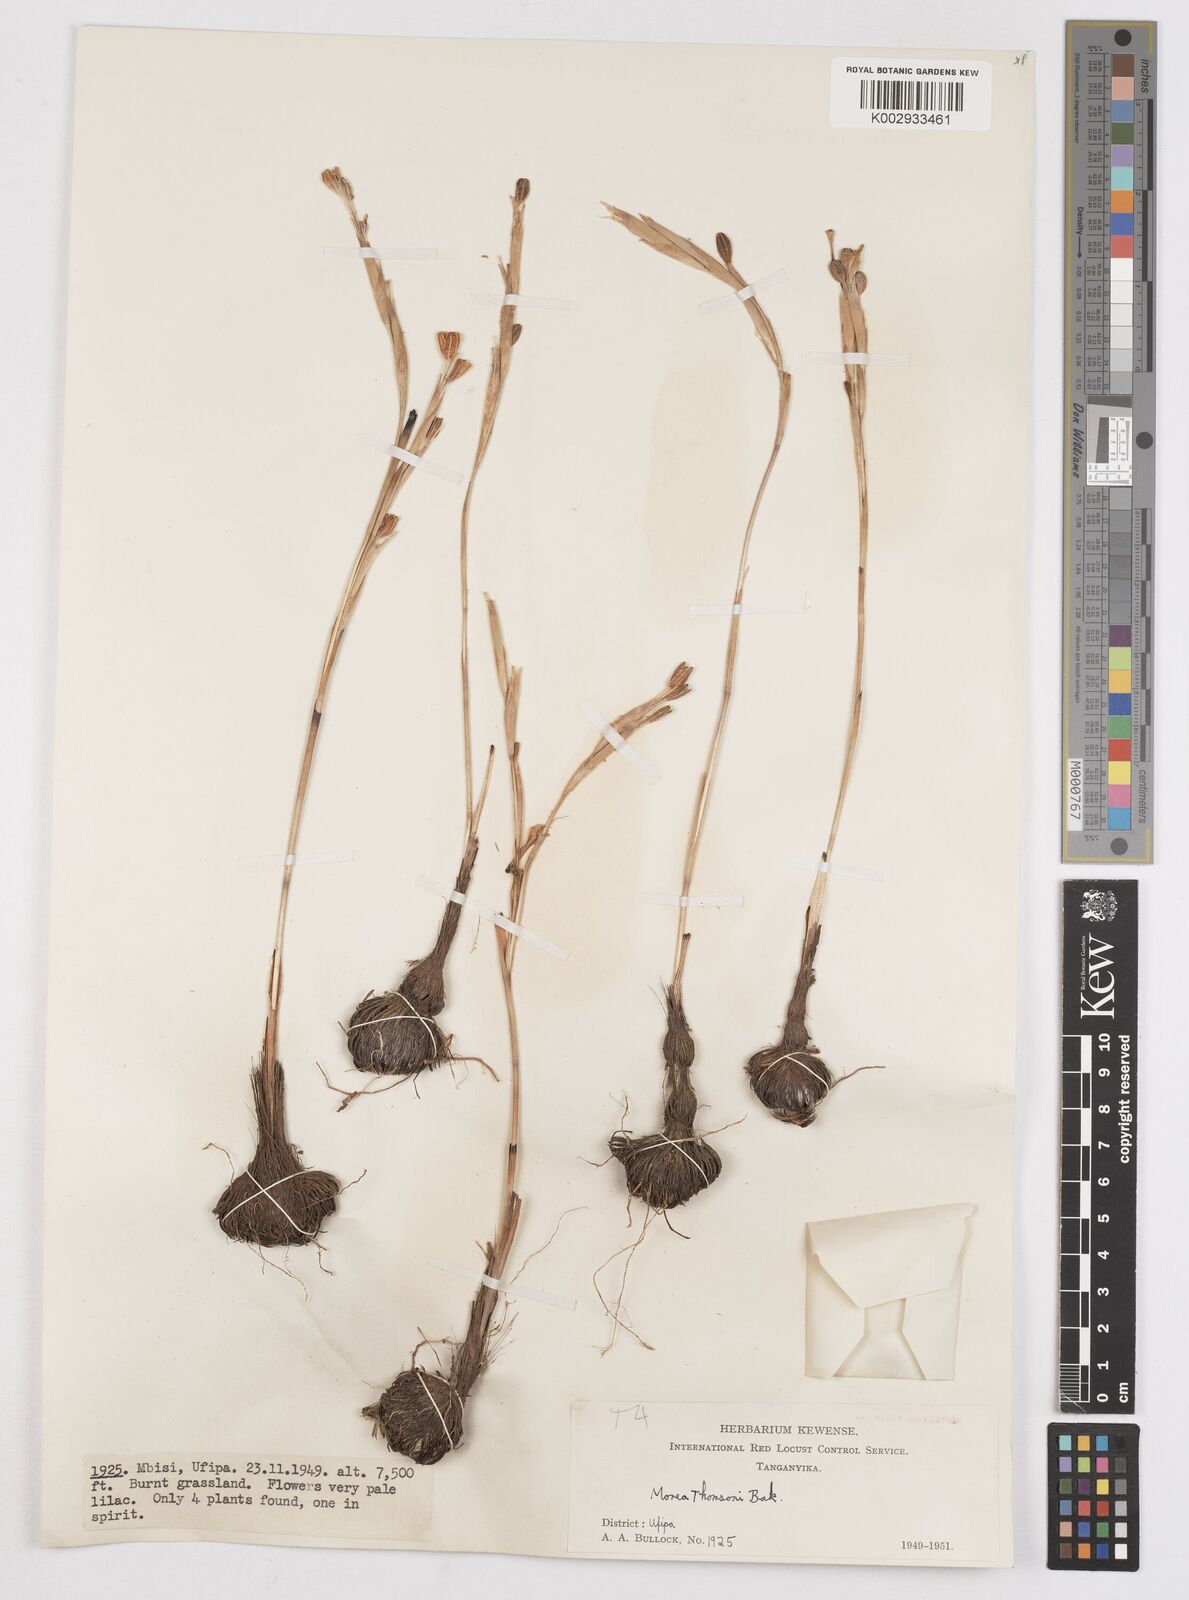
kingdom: Plantae
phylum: Tracheophyta
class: Liliopsida
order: Asparagales
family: Iridaceae
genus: Moraea
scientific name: Moraea thomsonii
